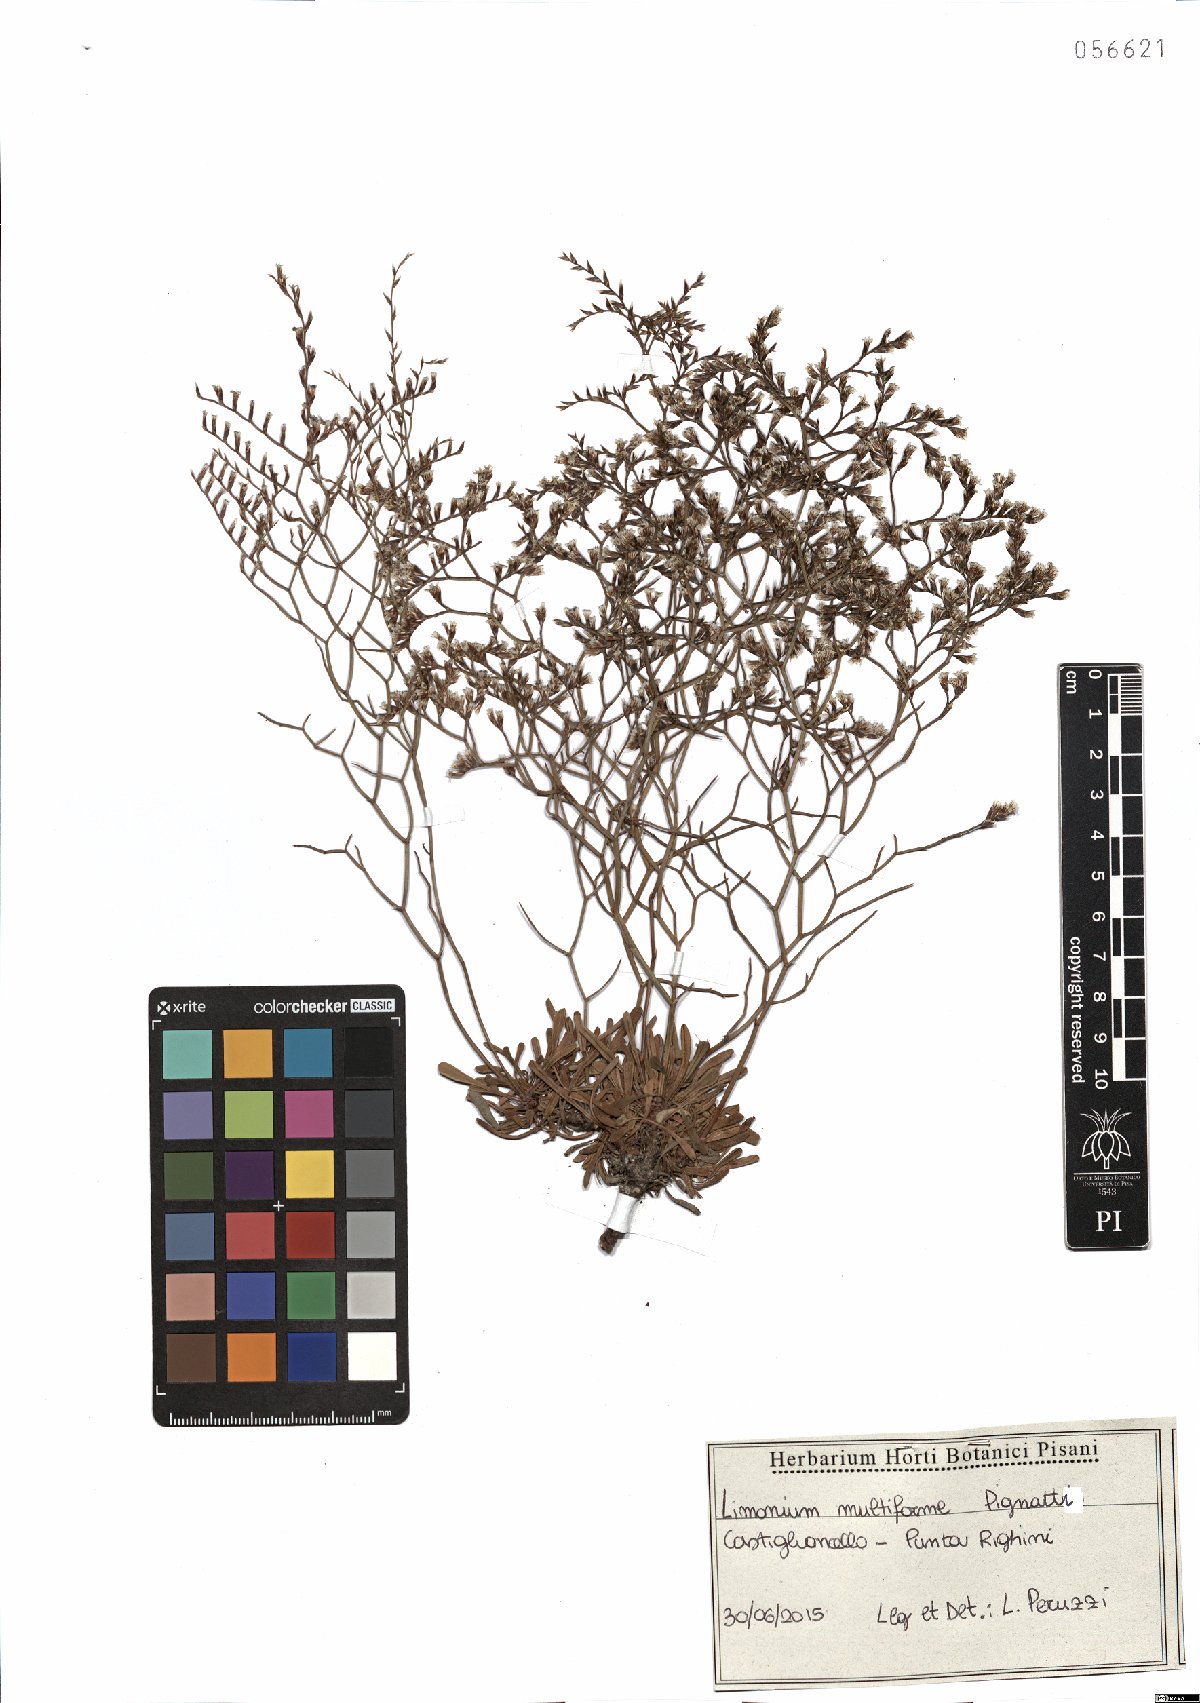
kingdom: Plantae
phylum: Tracheophyta
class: Magnoliopsida
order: Caryophyllales
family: Plumbaginaceae
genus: Limonium
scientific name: Limonium multiforme
